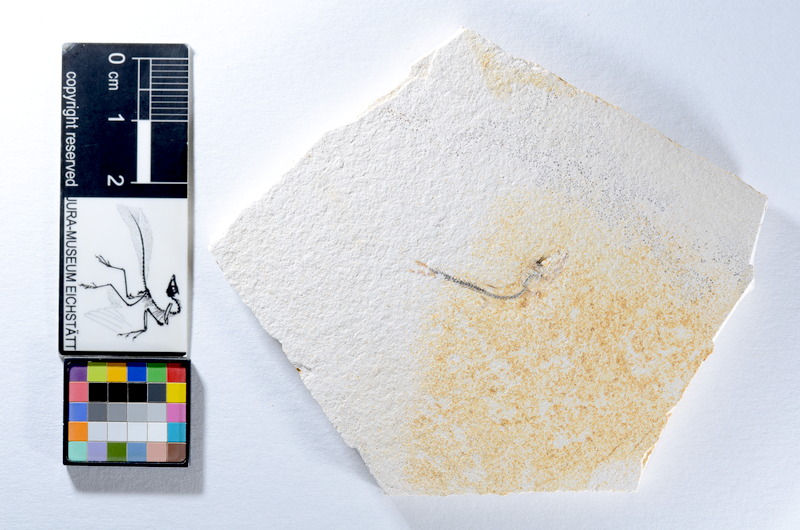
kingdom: Animalia
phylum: Chordata
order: Salmoniformes
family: Orthogonikleithridae
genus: Orthogonikleithrus
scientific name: Orthogonikleithrus hoelli
